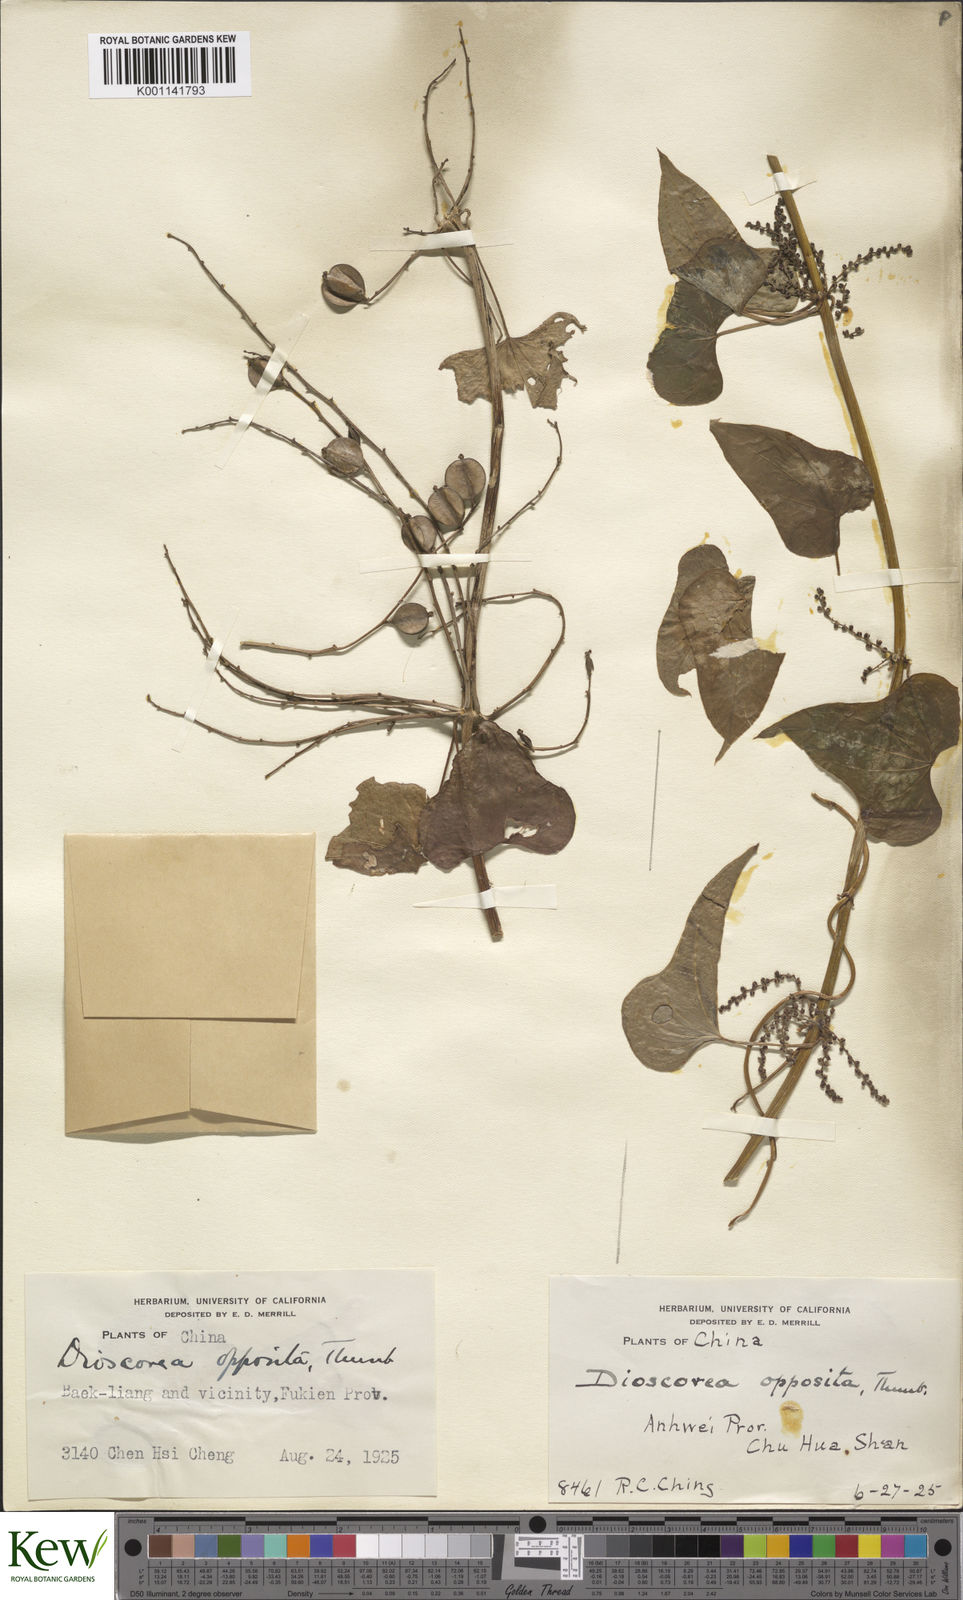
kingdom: Plantae
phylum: Tracheophyta
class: Liliopsida
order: Dioscoreales
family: Dioscoreaceae
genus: Dioscorea
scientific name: Dioscorea oppositifolia
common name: Chinese yam
